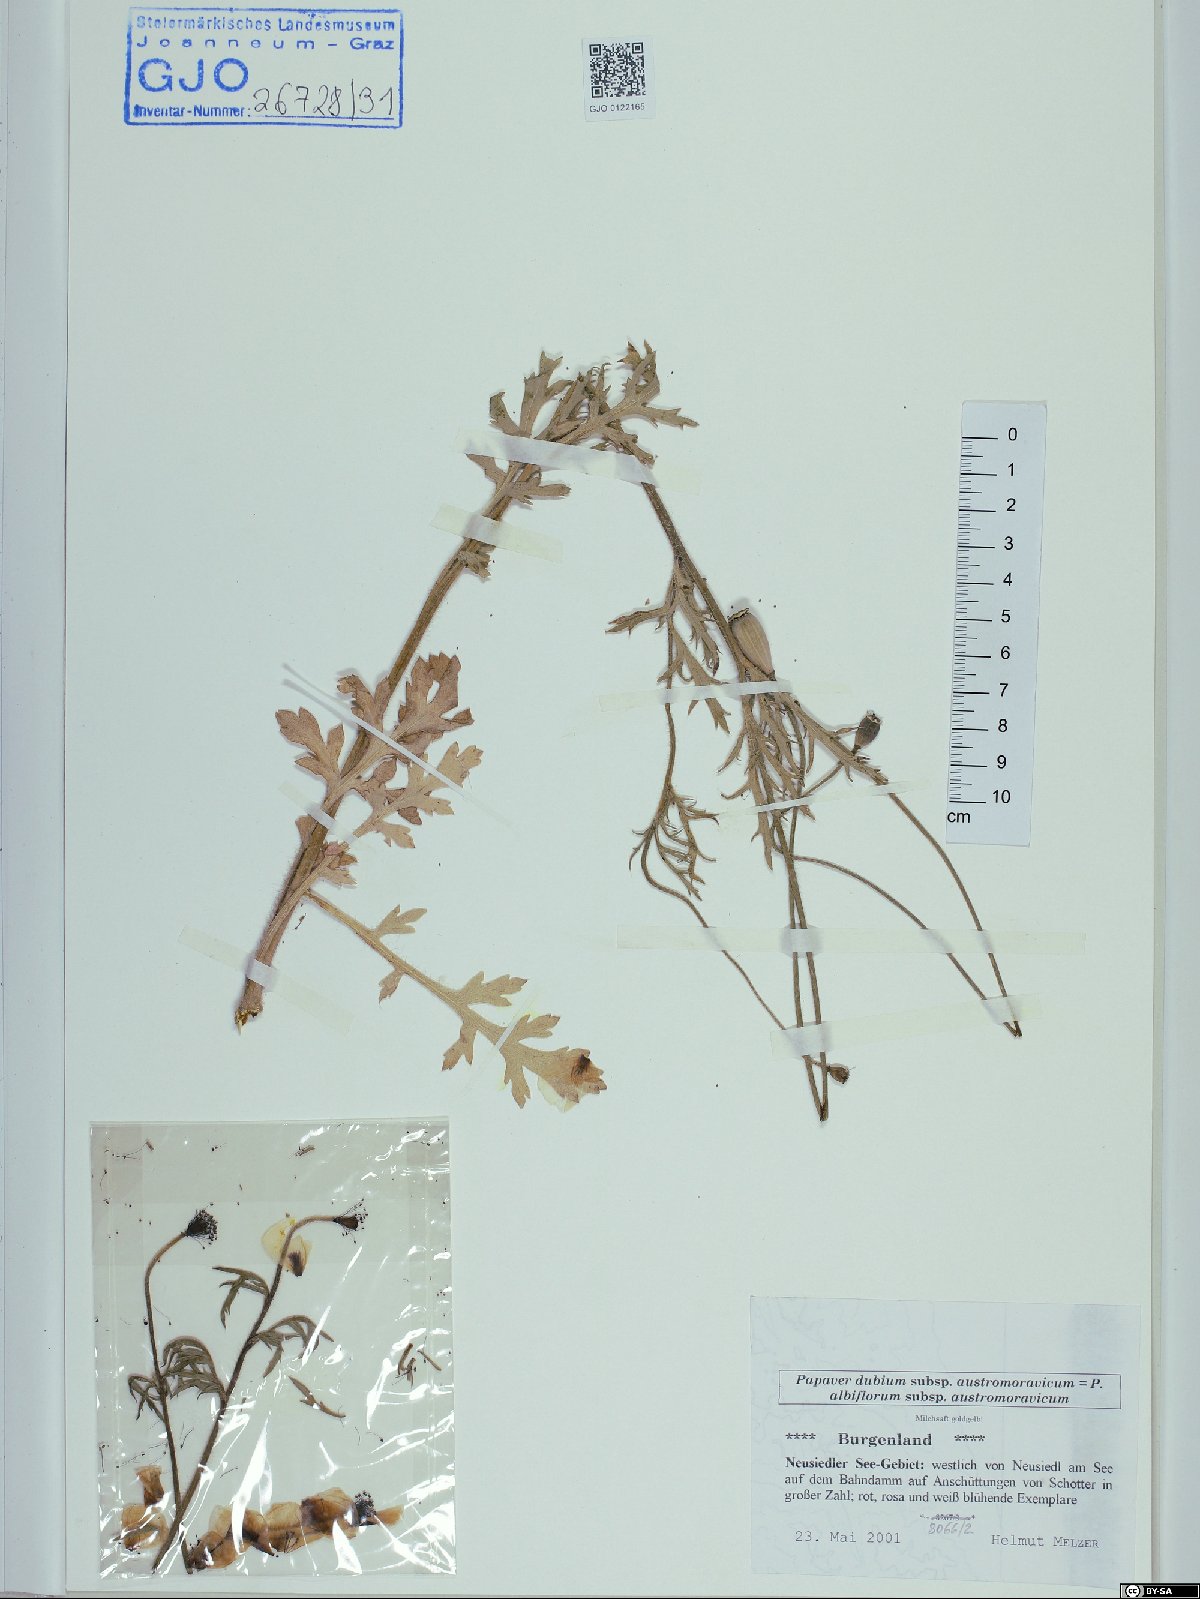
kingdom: Plantae
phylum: Tracheophyta
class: Magnoliopsida
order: Ranunculales
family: Papaveraceae
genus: Papaver
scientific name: Papaver dubium
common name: Long-headed poppy
